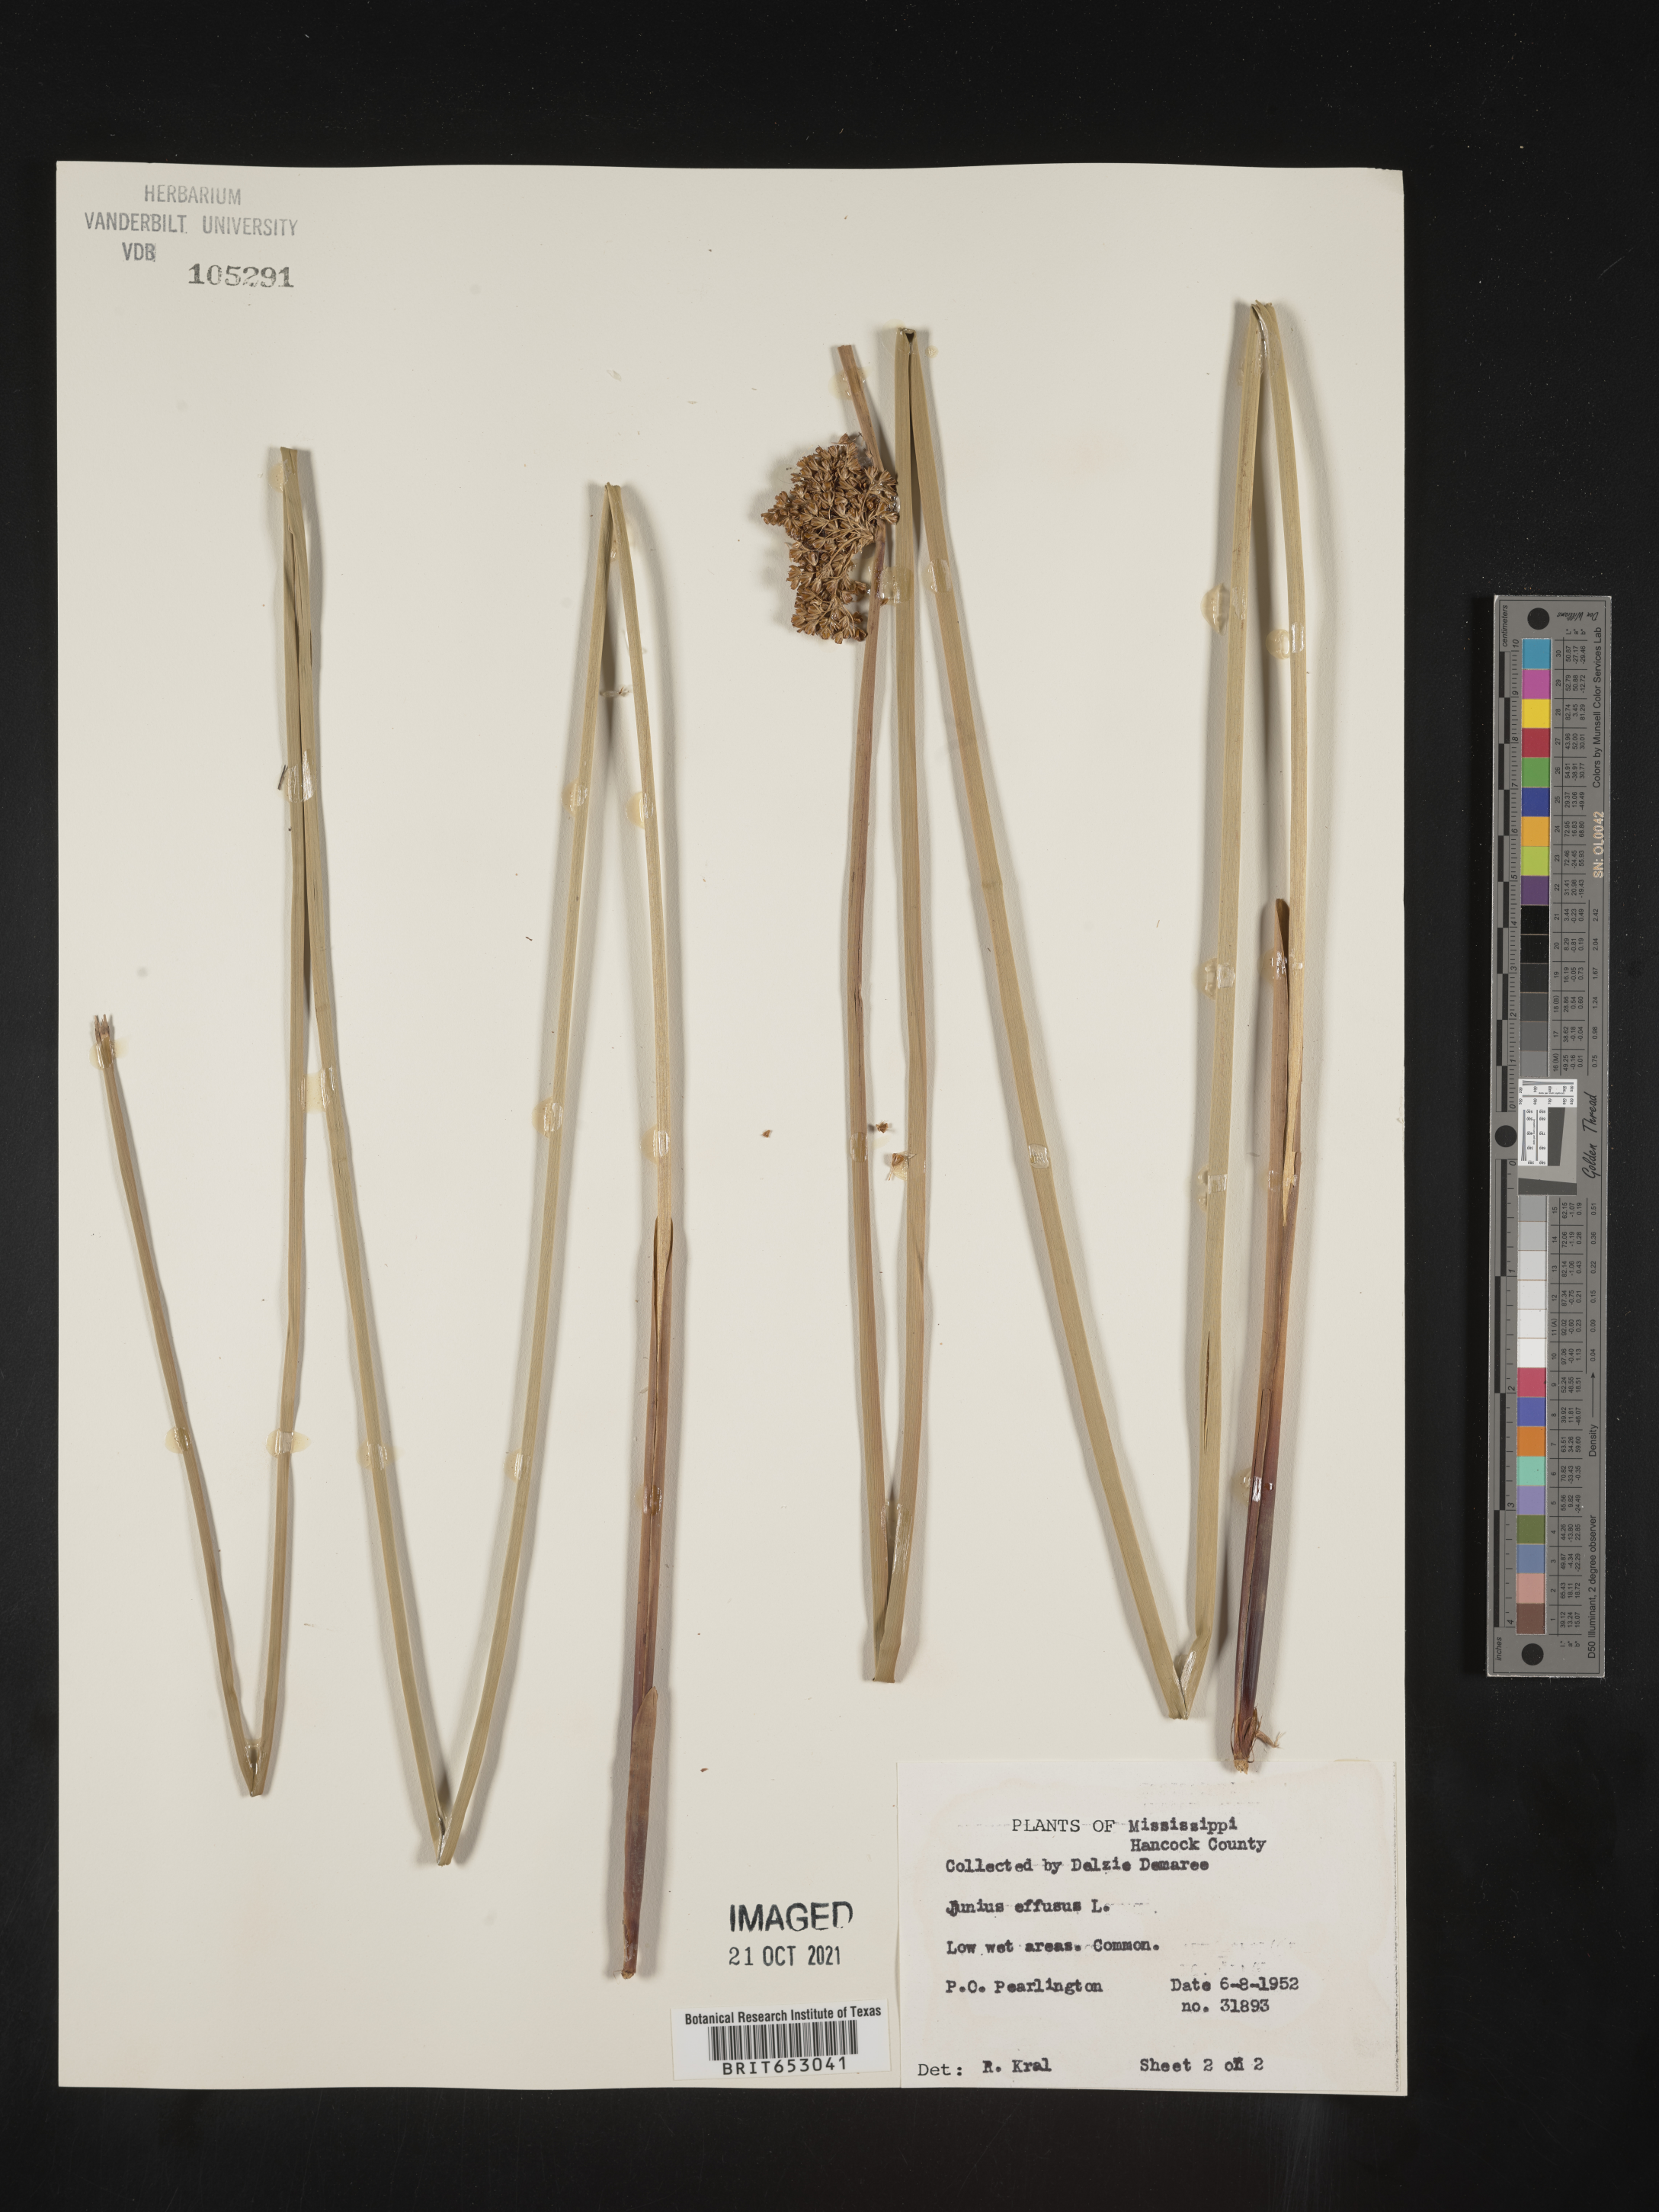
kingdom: Plantae
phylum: Tracheophyta
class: Liliopsida
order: Poales
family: Juncaceae
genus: Juncus
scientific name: Juncus effusus
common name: Soft rush
